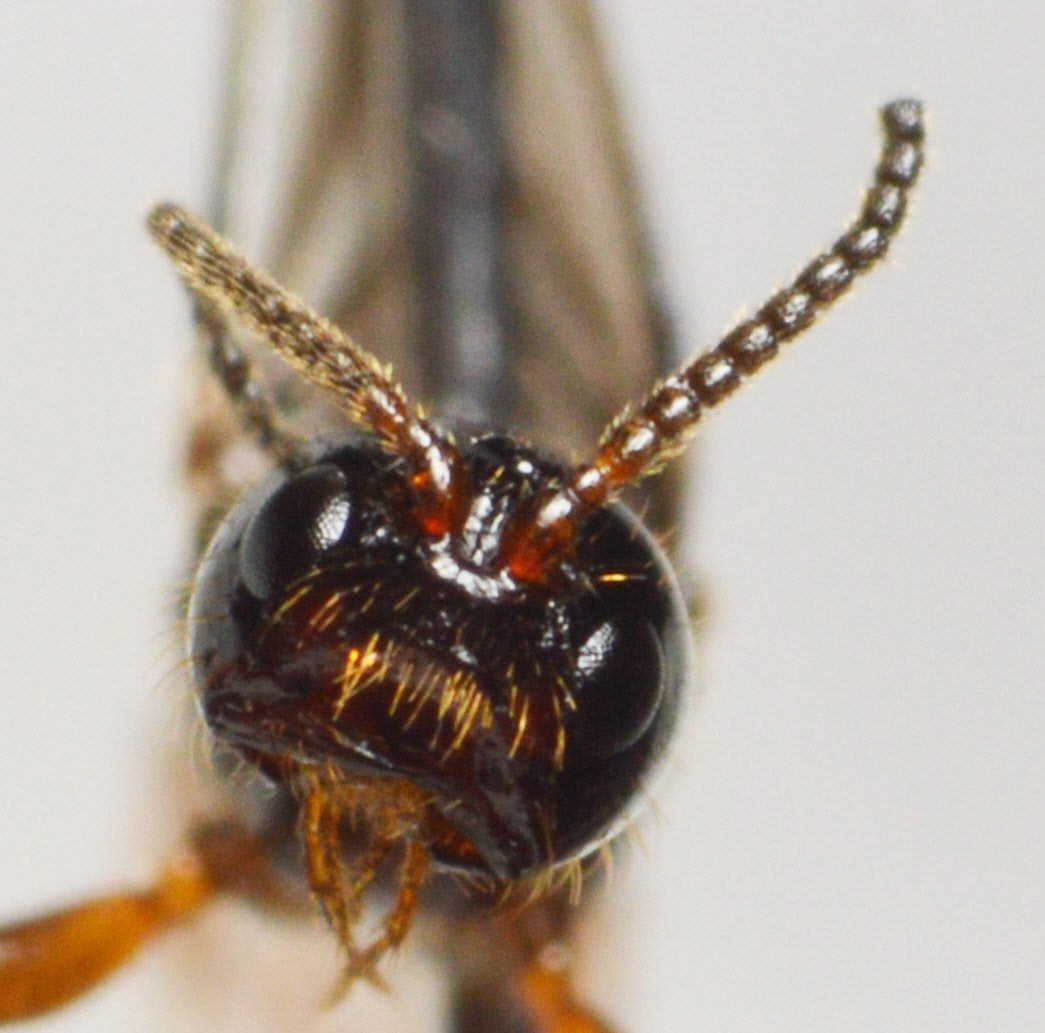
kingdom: Animalia
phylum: Arthropoda
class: Insecta
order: Hymenoptera
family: Braconidae
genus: Histeromerus
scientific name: Histeromerus mystacinus
